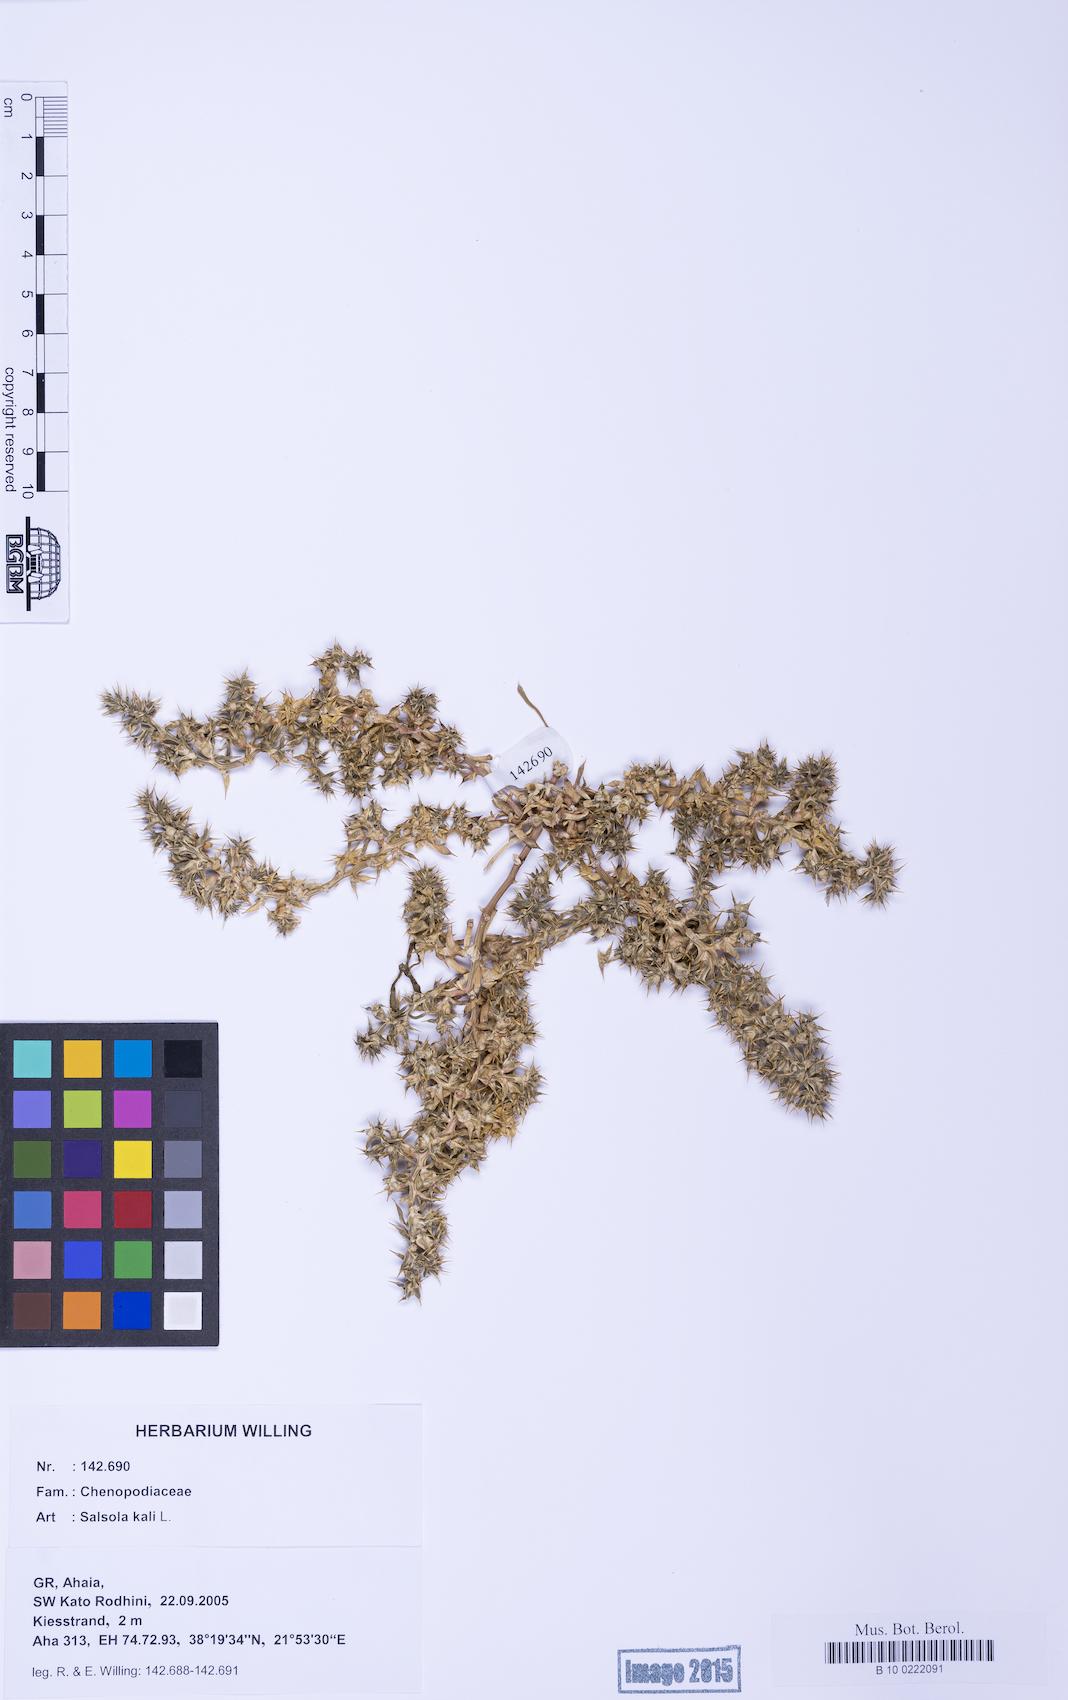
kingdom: Plantae
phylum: Tracheophyta
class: Magnoliopsida
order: Caryophyllales
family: Amaranthaceae
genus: Salsola
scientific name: Salsola kali
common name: Saltwort
